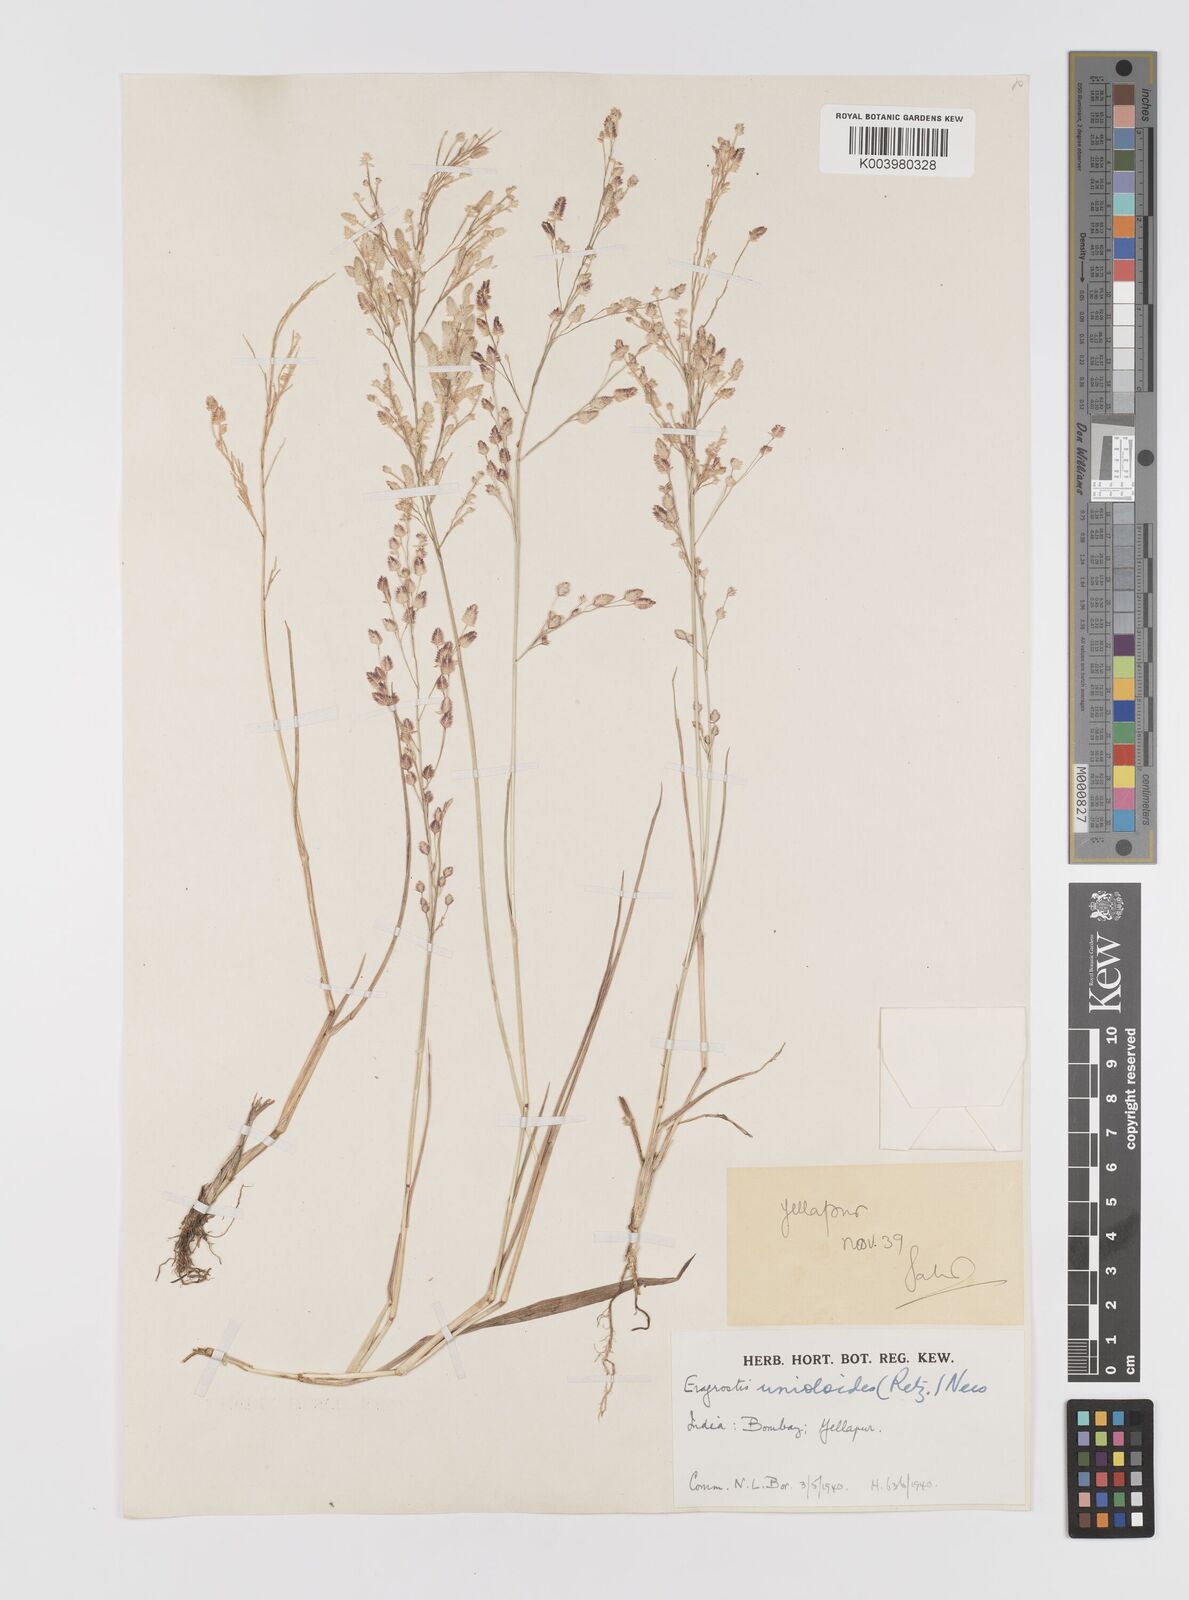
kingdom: Plantae
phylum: Tracheophyta
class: Liliopsida
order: Poales
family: Poaceae
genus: Eragrostis
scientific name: Eragrostis unioloides
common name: Chinese lovegrass
